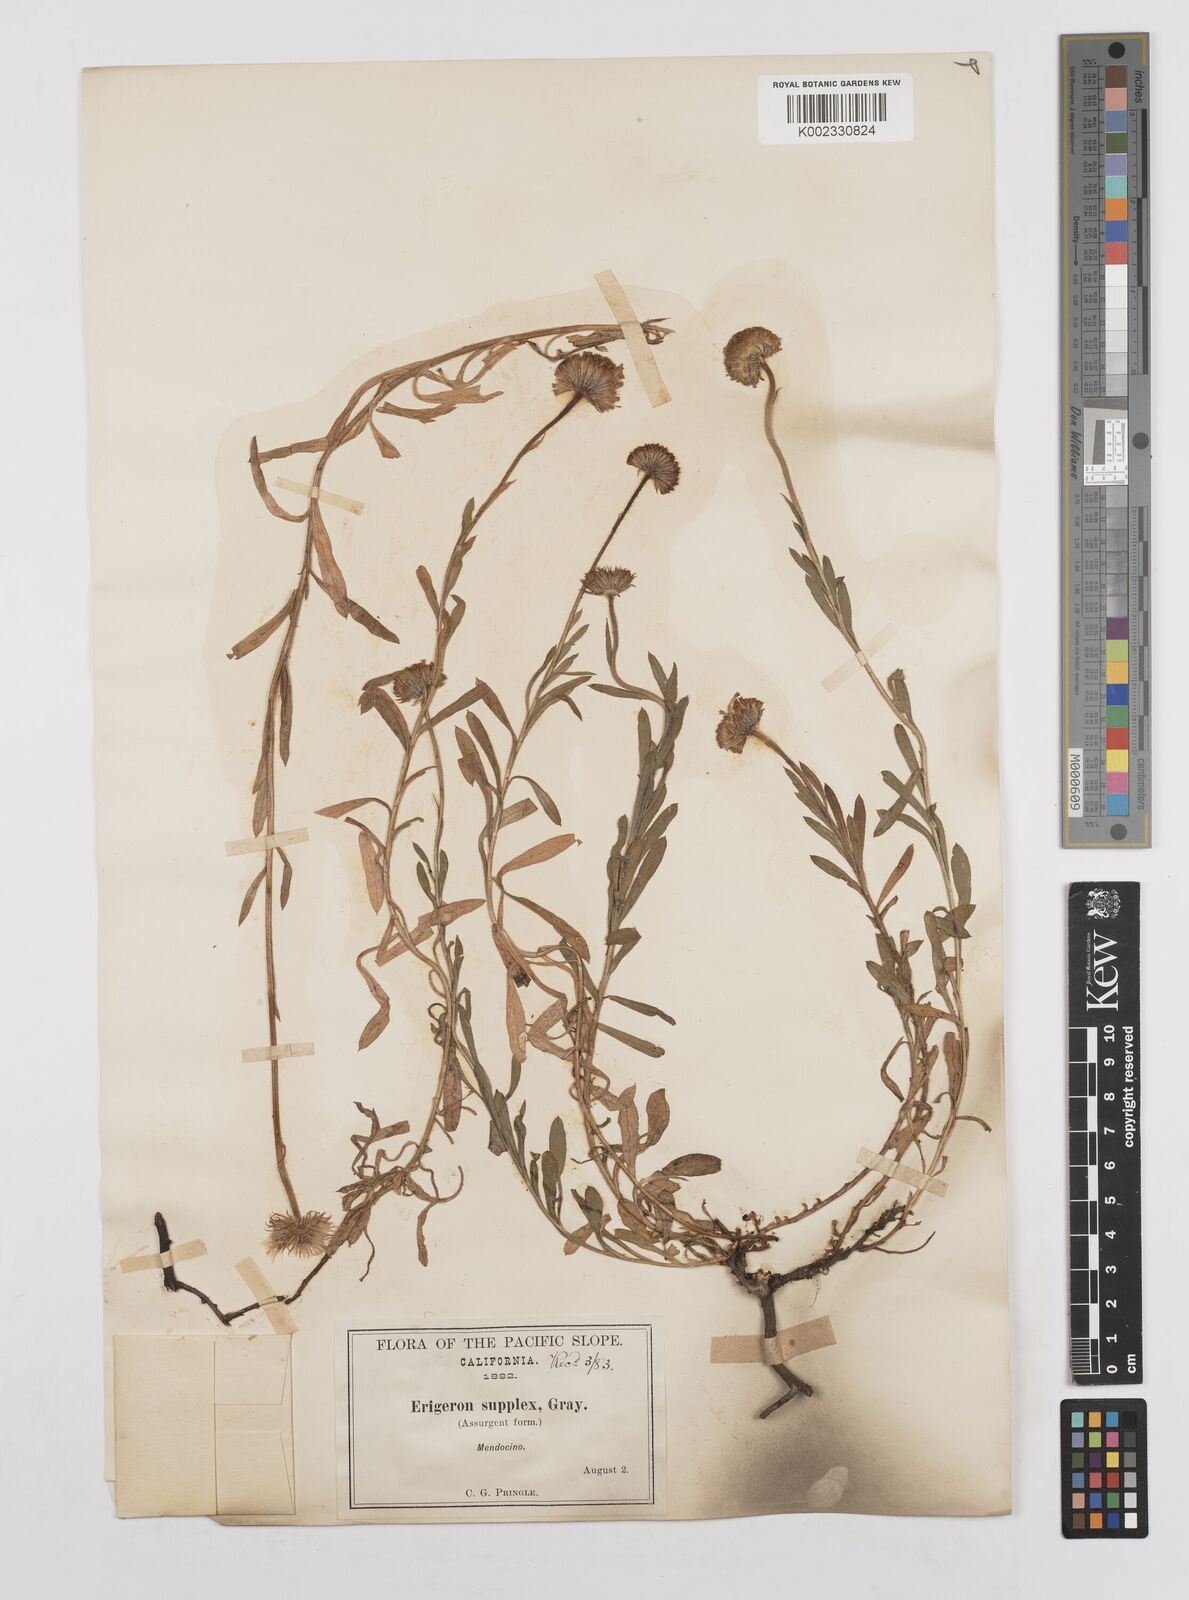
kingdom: Plantae
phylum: Tracheophyta
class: Magnoliopsida
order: Asterales
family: Asteraceae
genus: Erigeron
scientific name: Erigeron supplex
